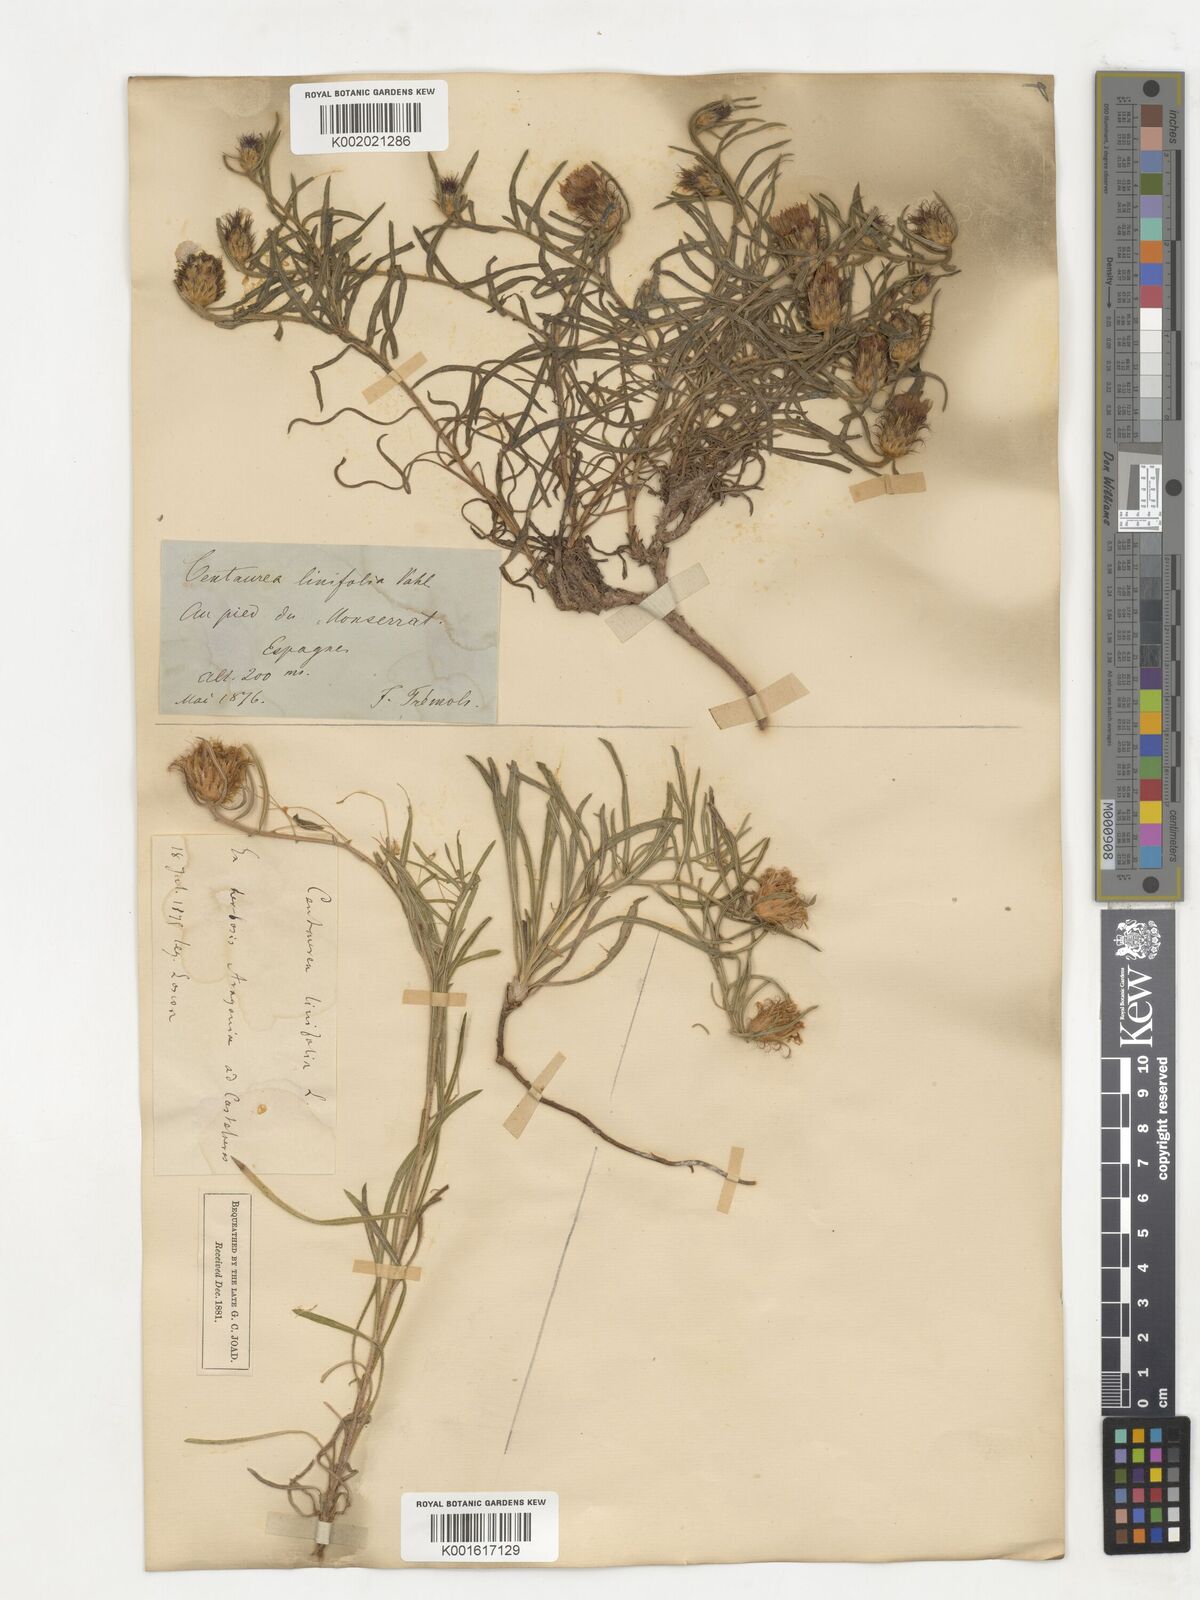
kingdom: Plantae
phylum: Tracheophyta
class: Magnoliopsida
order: Asterales
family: Asteraceae
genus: Centaurea
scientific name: Centaurea linifolia
